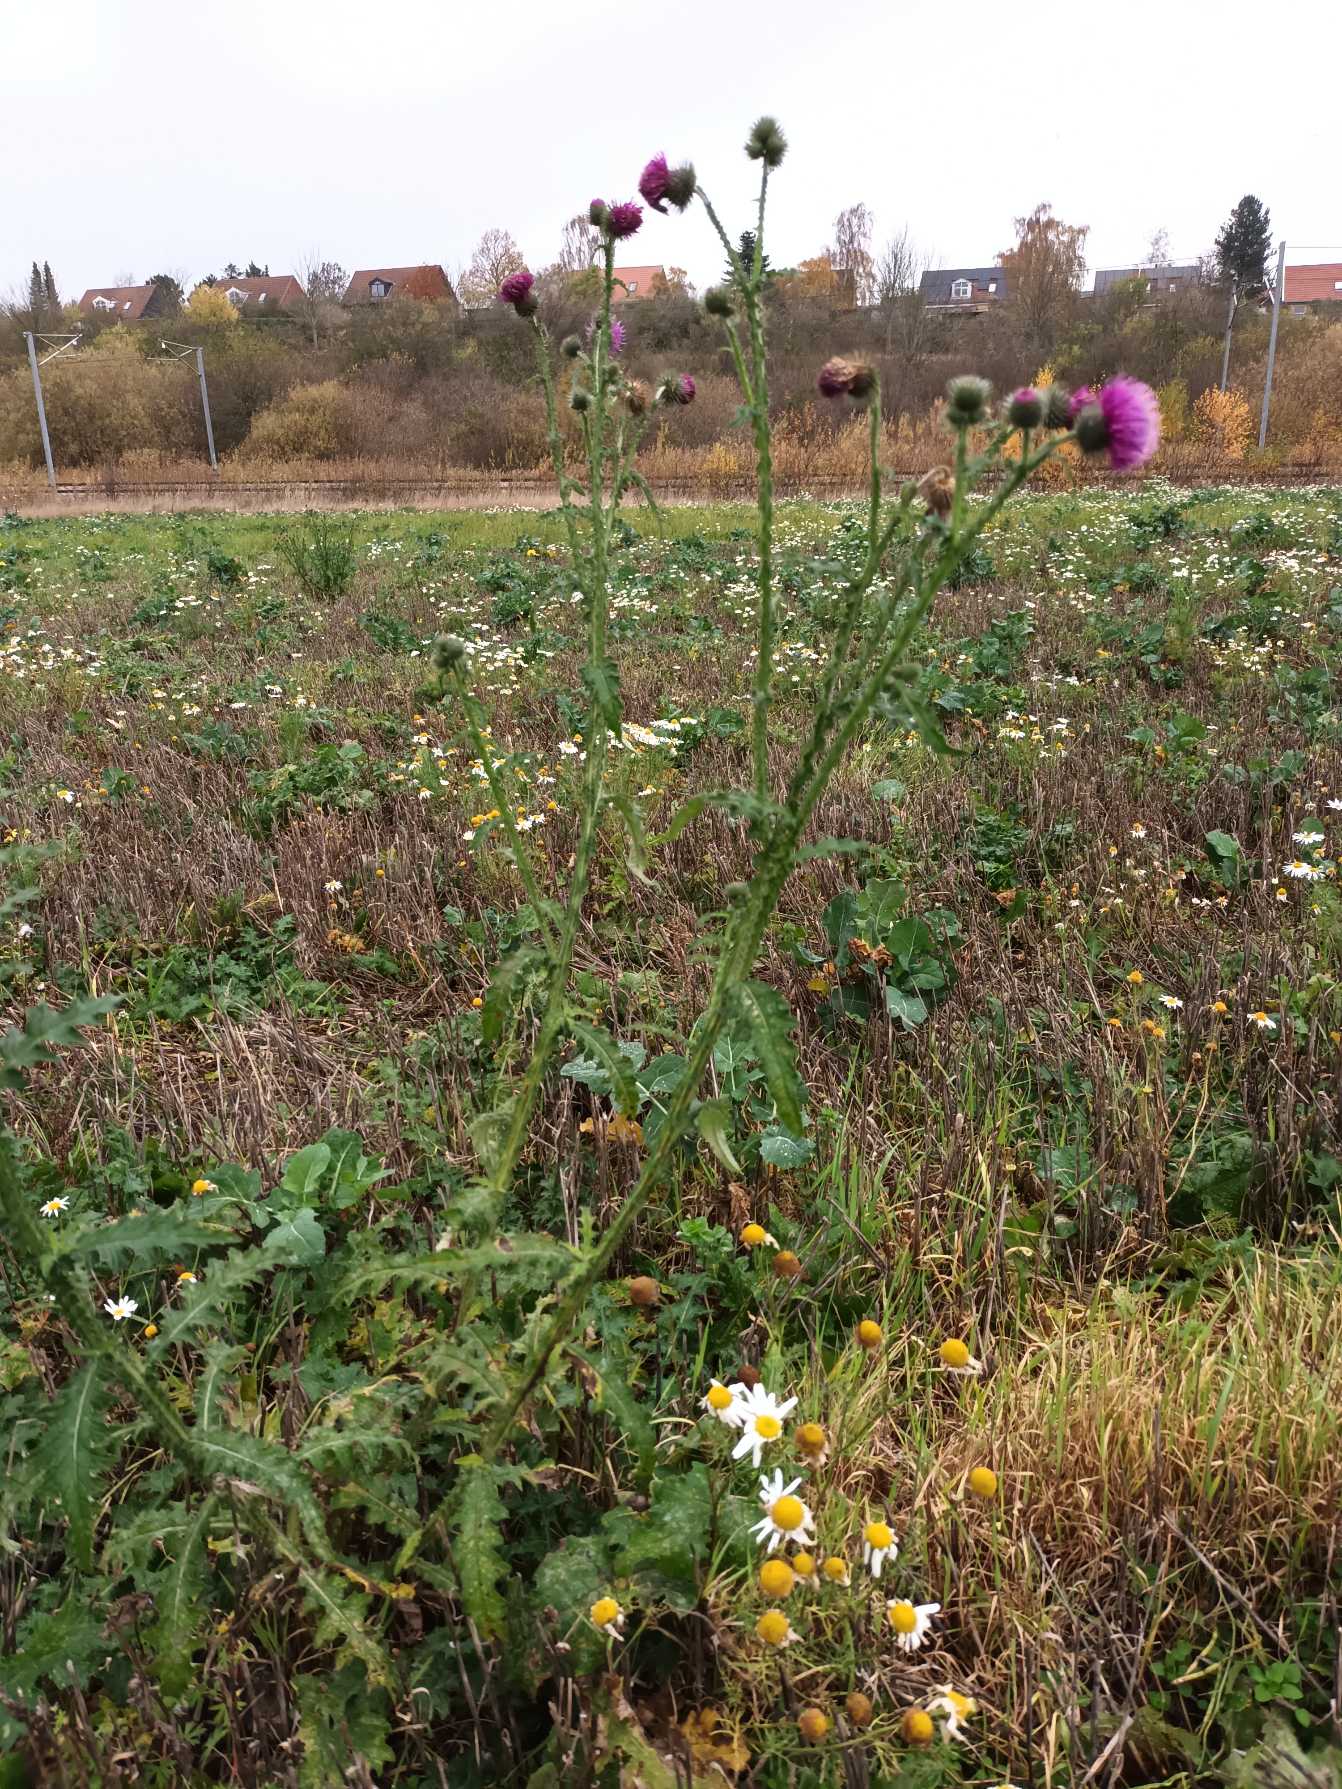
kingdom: Plantae
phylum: Tracheophyta
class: Magnoliopsida
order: Asterales
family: Asteraceae
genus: Carduus
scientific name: Carduus crispus
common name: Kruset tidsel
